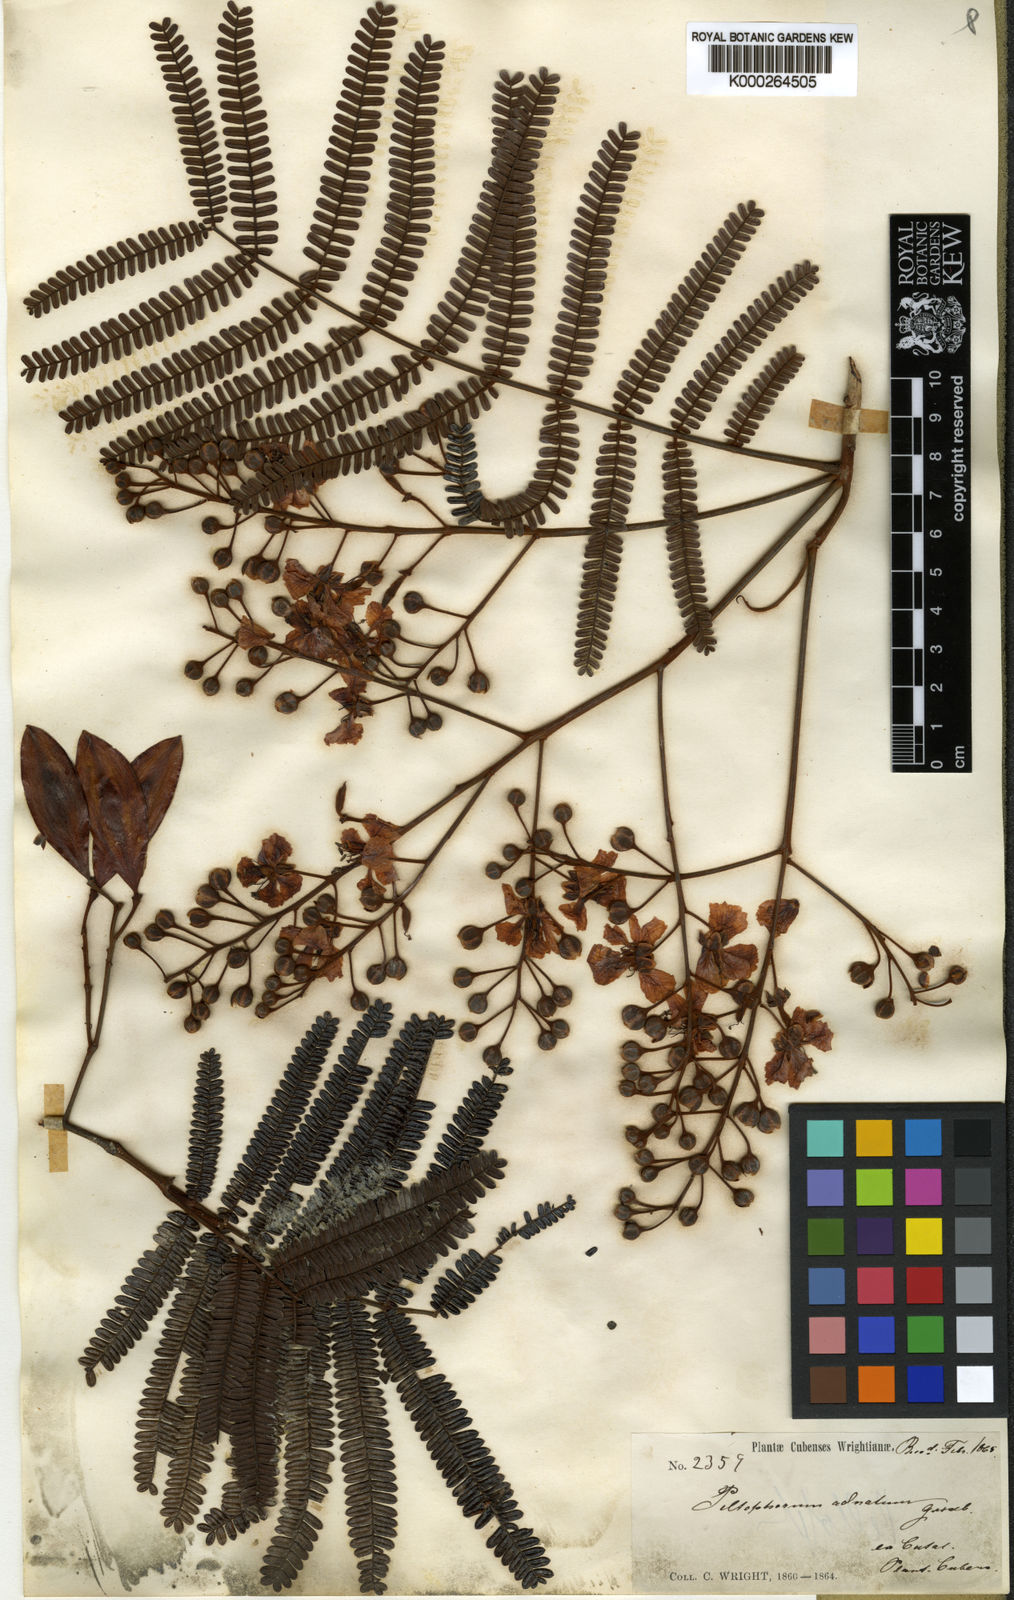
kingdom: Plantae
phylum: Tracheophyta
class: Magnoliopsida
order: Fabales
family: Fabaceae
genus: Peltophorum
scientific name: Peltophorum dubium
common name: Horsebush
